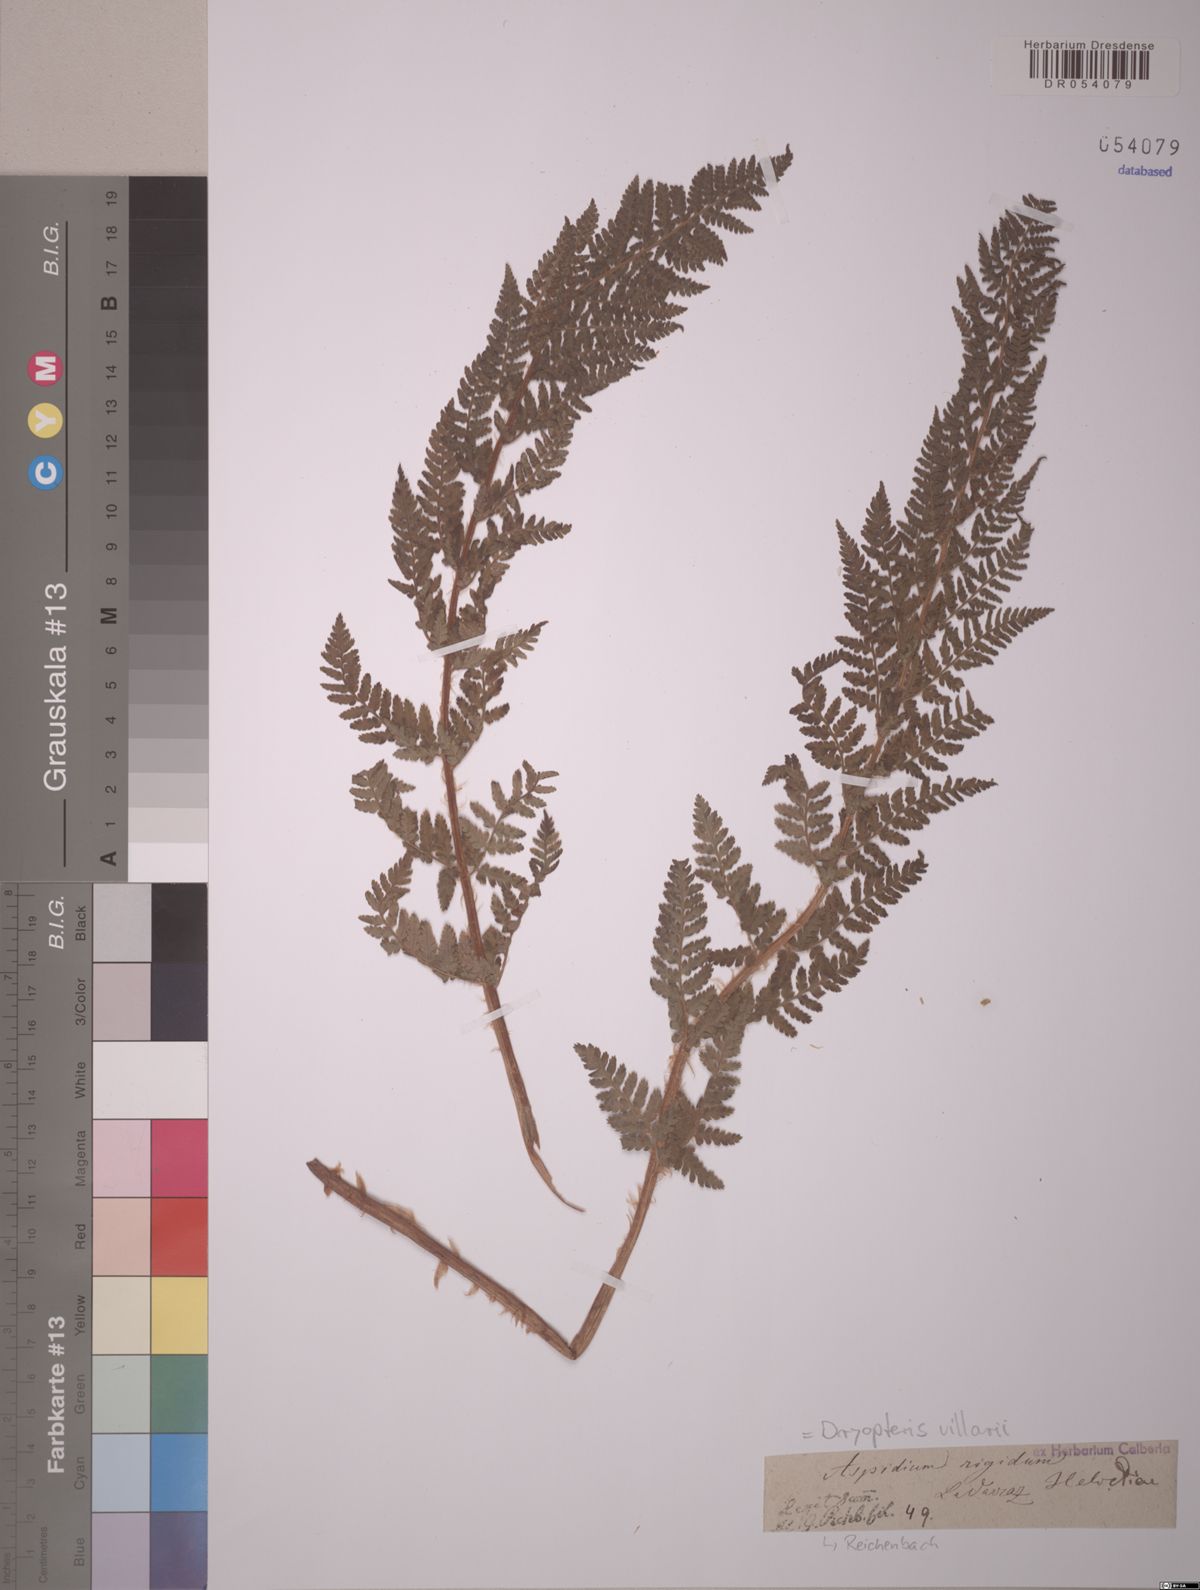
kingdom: Plantae
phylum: Tracheophyta
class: Polypodiopsida
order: Polypodiales
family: Dryopteridaceae
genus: Dryopteris
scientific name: Dryopteris villarii
